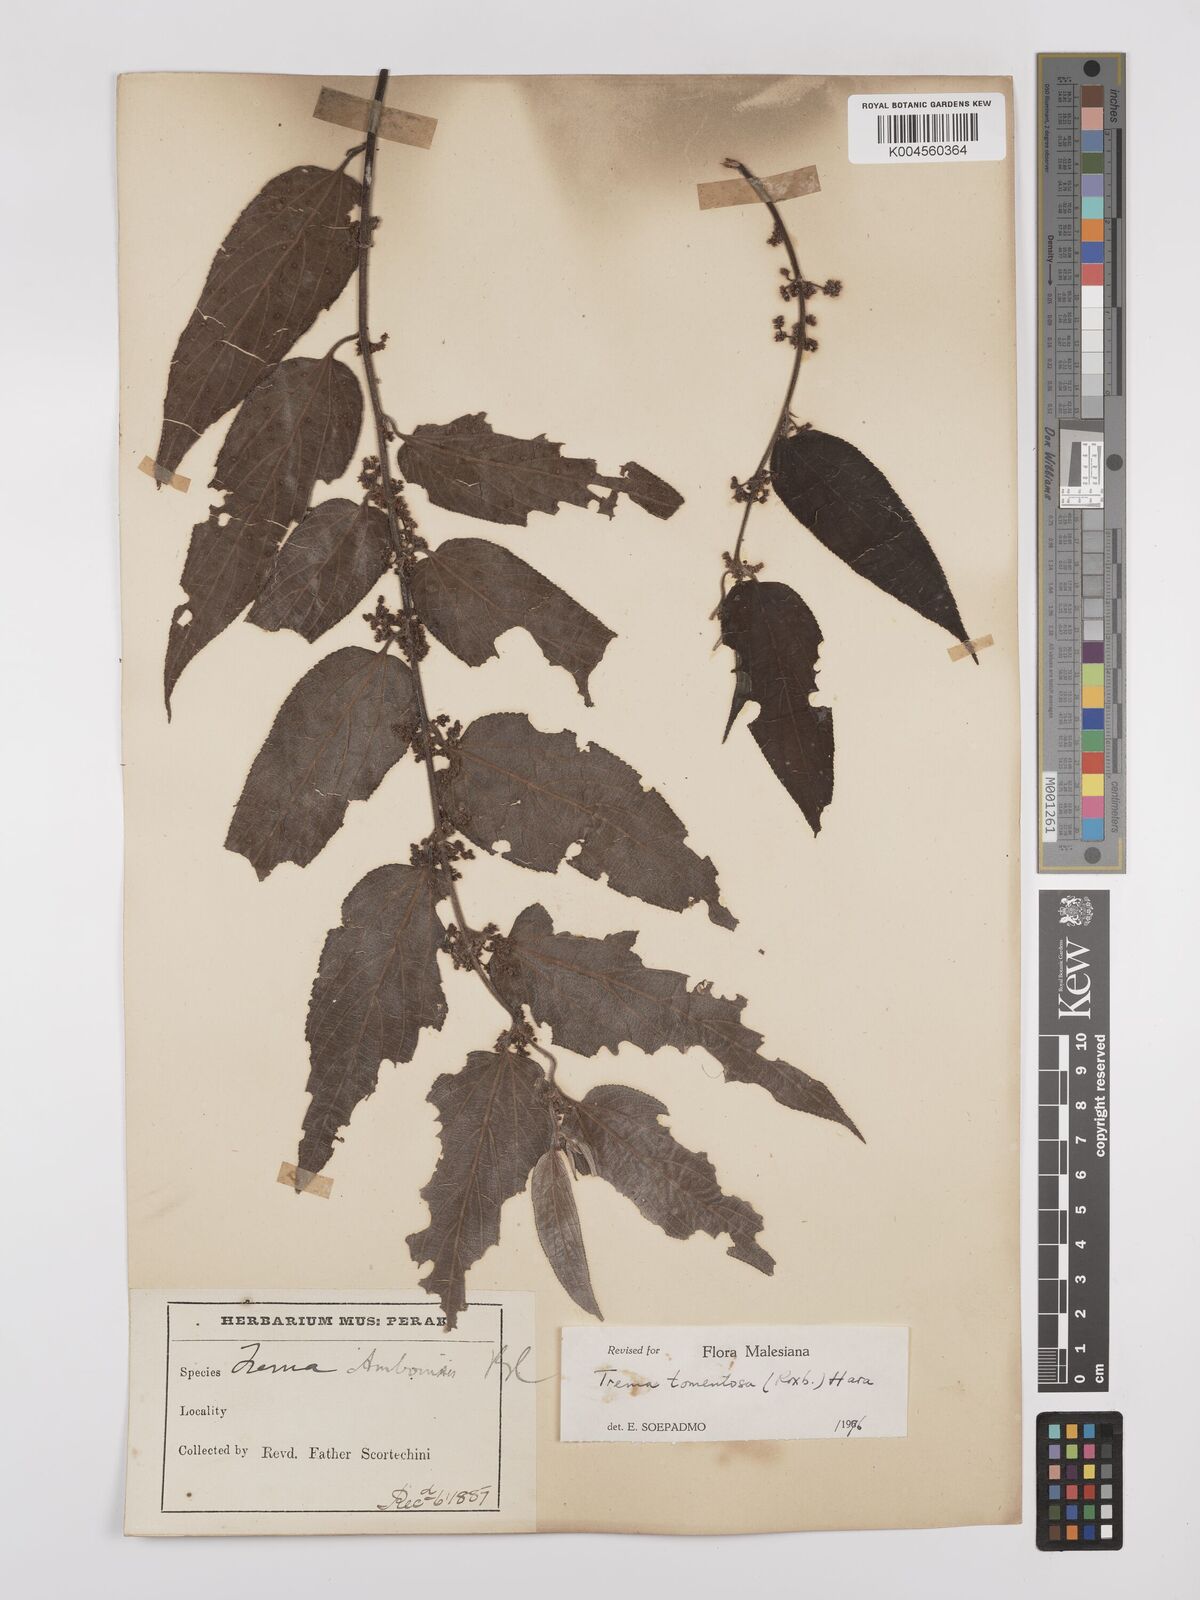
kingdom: Plantae
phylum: Tracheophyta
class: Magnoliopsida
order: Rosales
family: Cannabaceae
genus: Trema
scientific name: Trema tomentosum
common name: Peach-leaf-poisonbush
